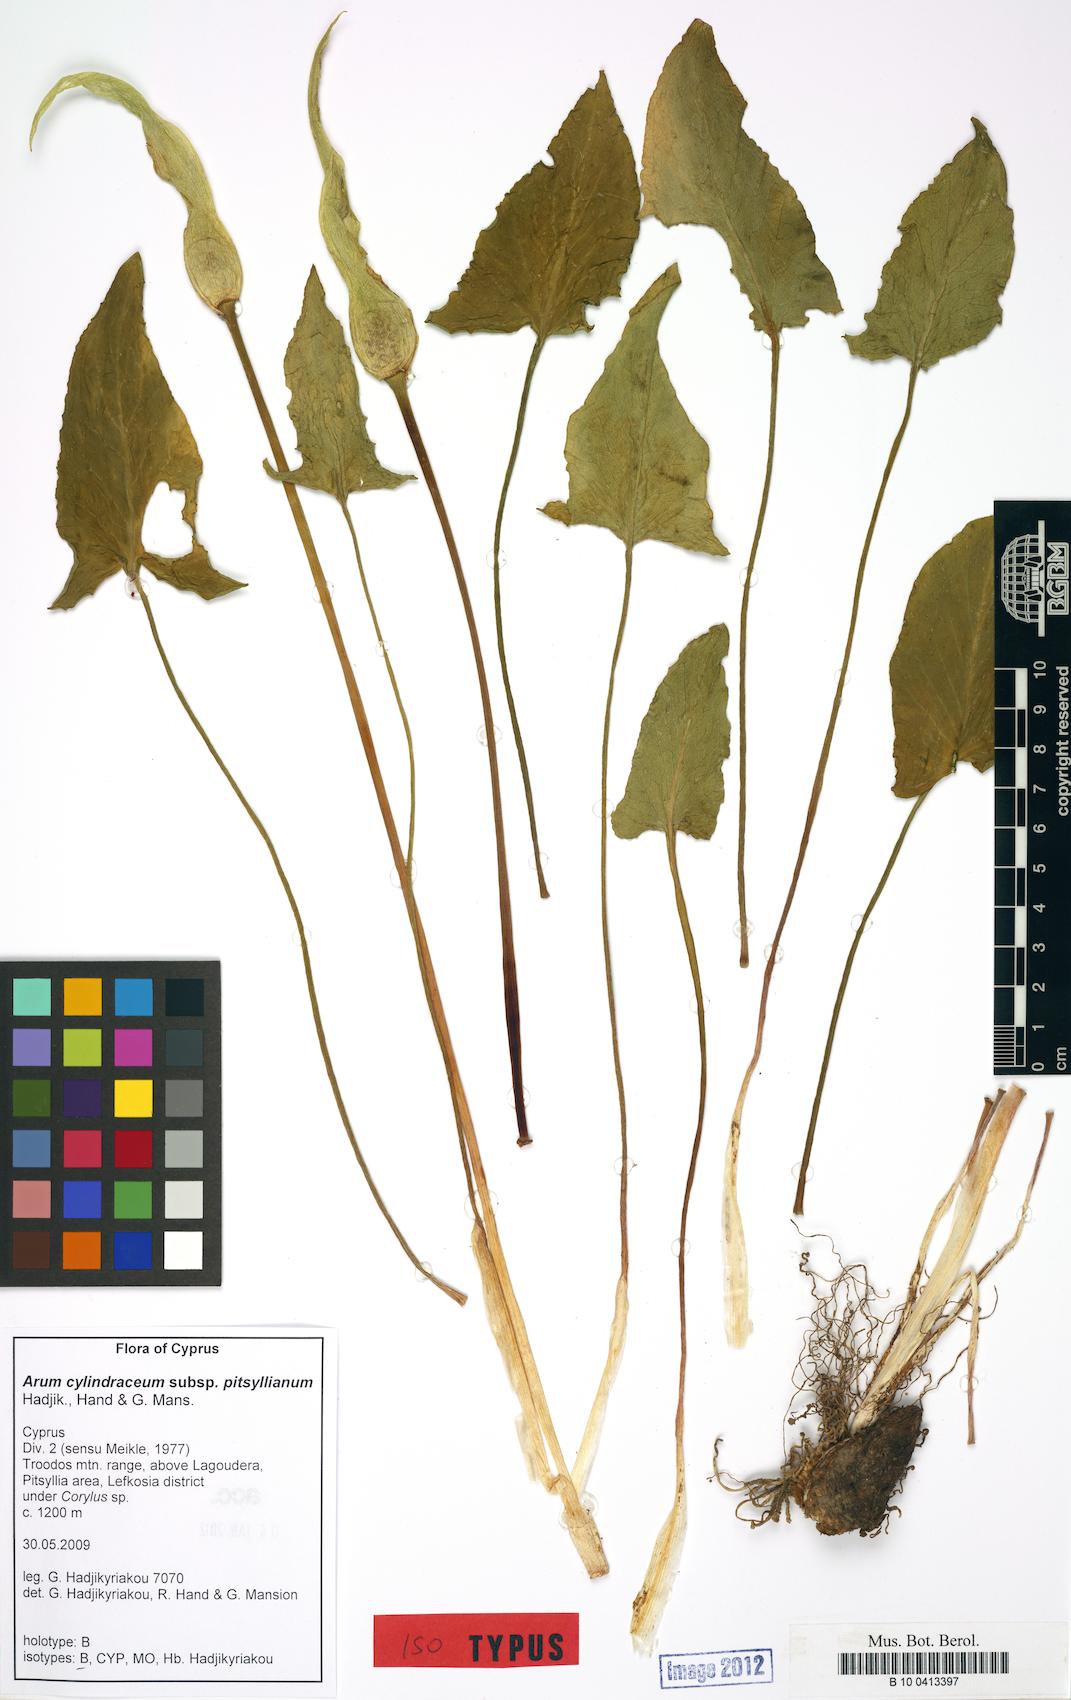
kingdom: Plantae
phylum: Tracheophyta
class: Liliopsida
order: Alismatales
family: Araceae
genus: Arum
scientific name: Arum cylindraceum
